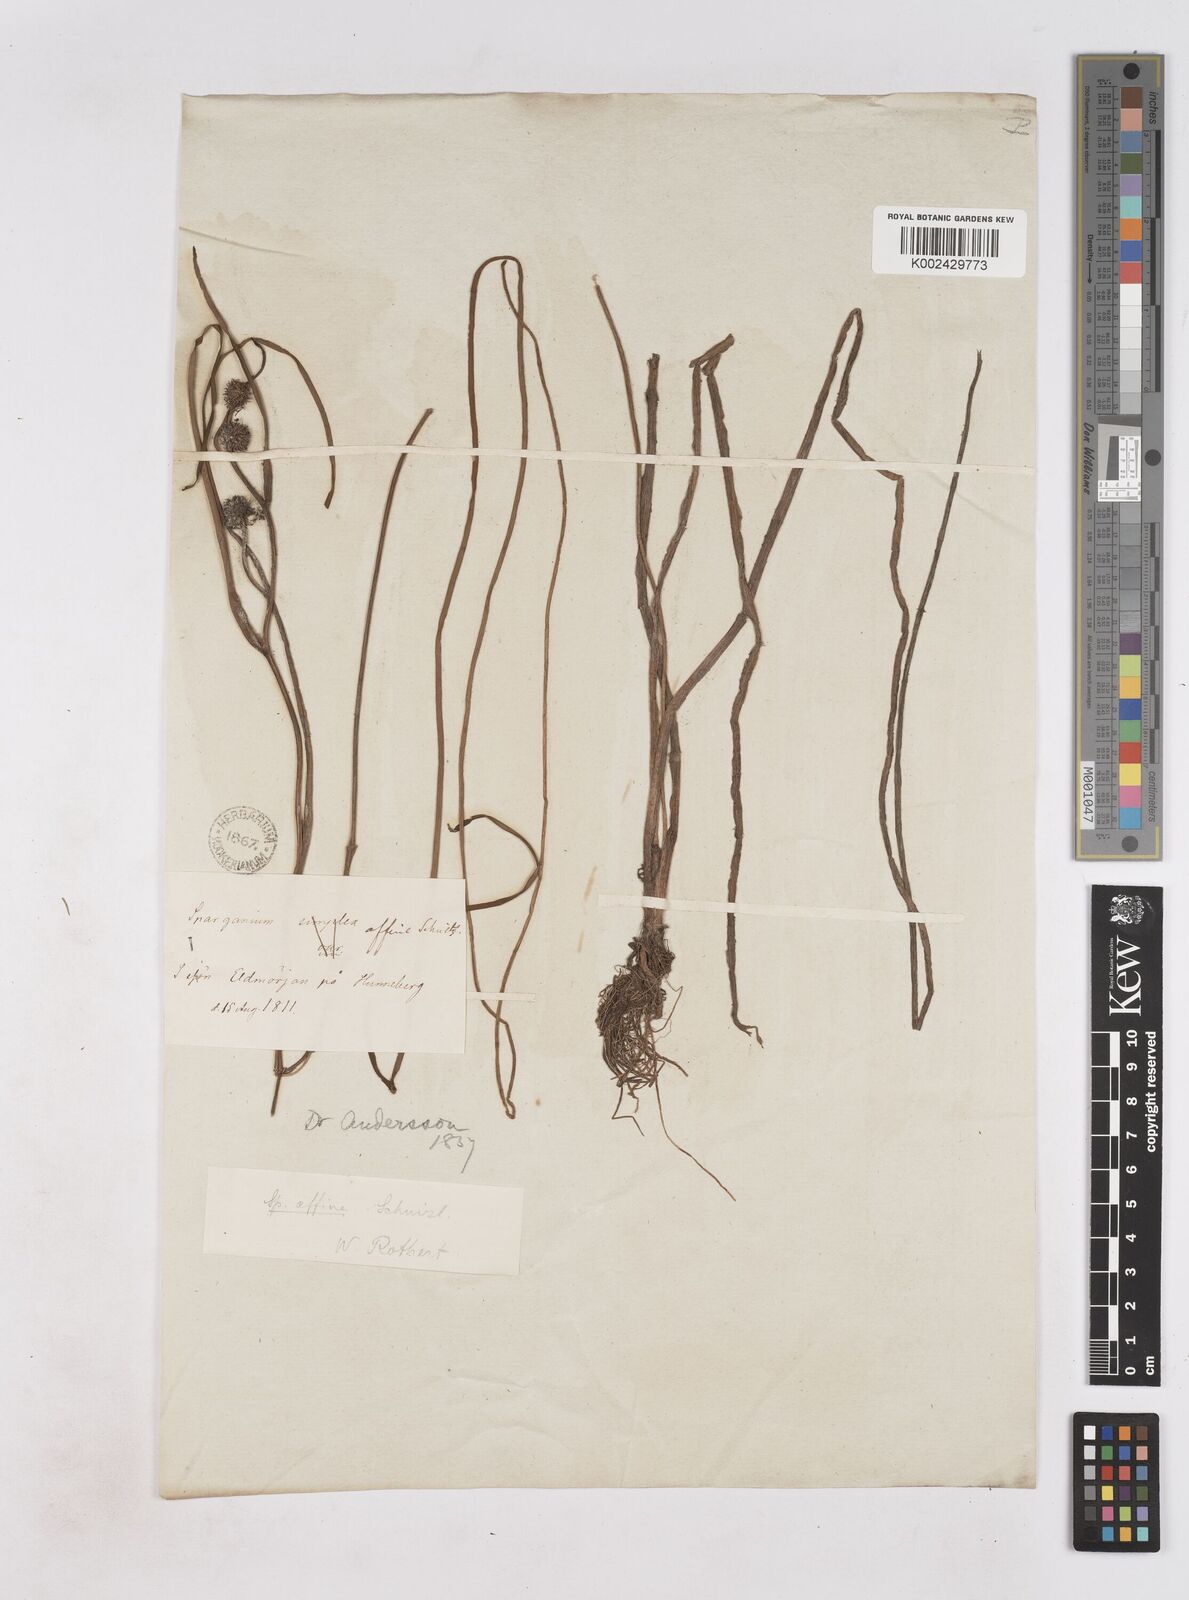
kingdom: Plantae
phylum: Tracheophyta
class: Liliopsida
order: Poales
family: Typhaceae
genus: Sparganium
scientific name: Sparganium angustifolium
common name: Floating bur-reed
